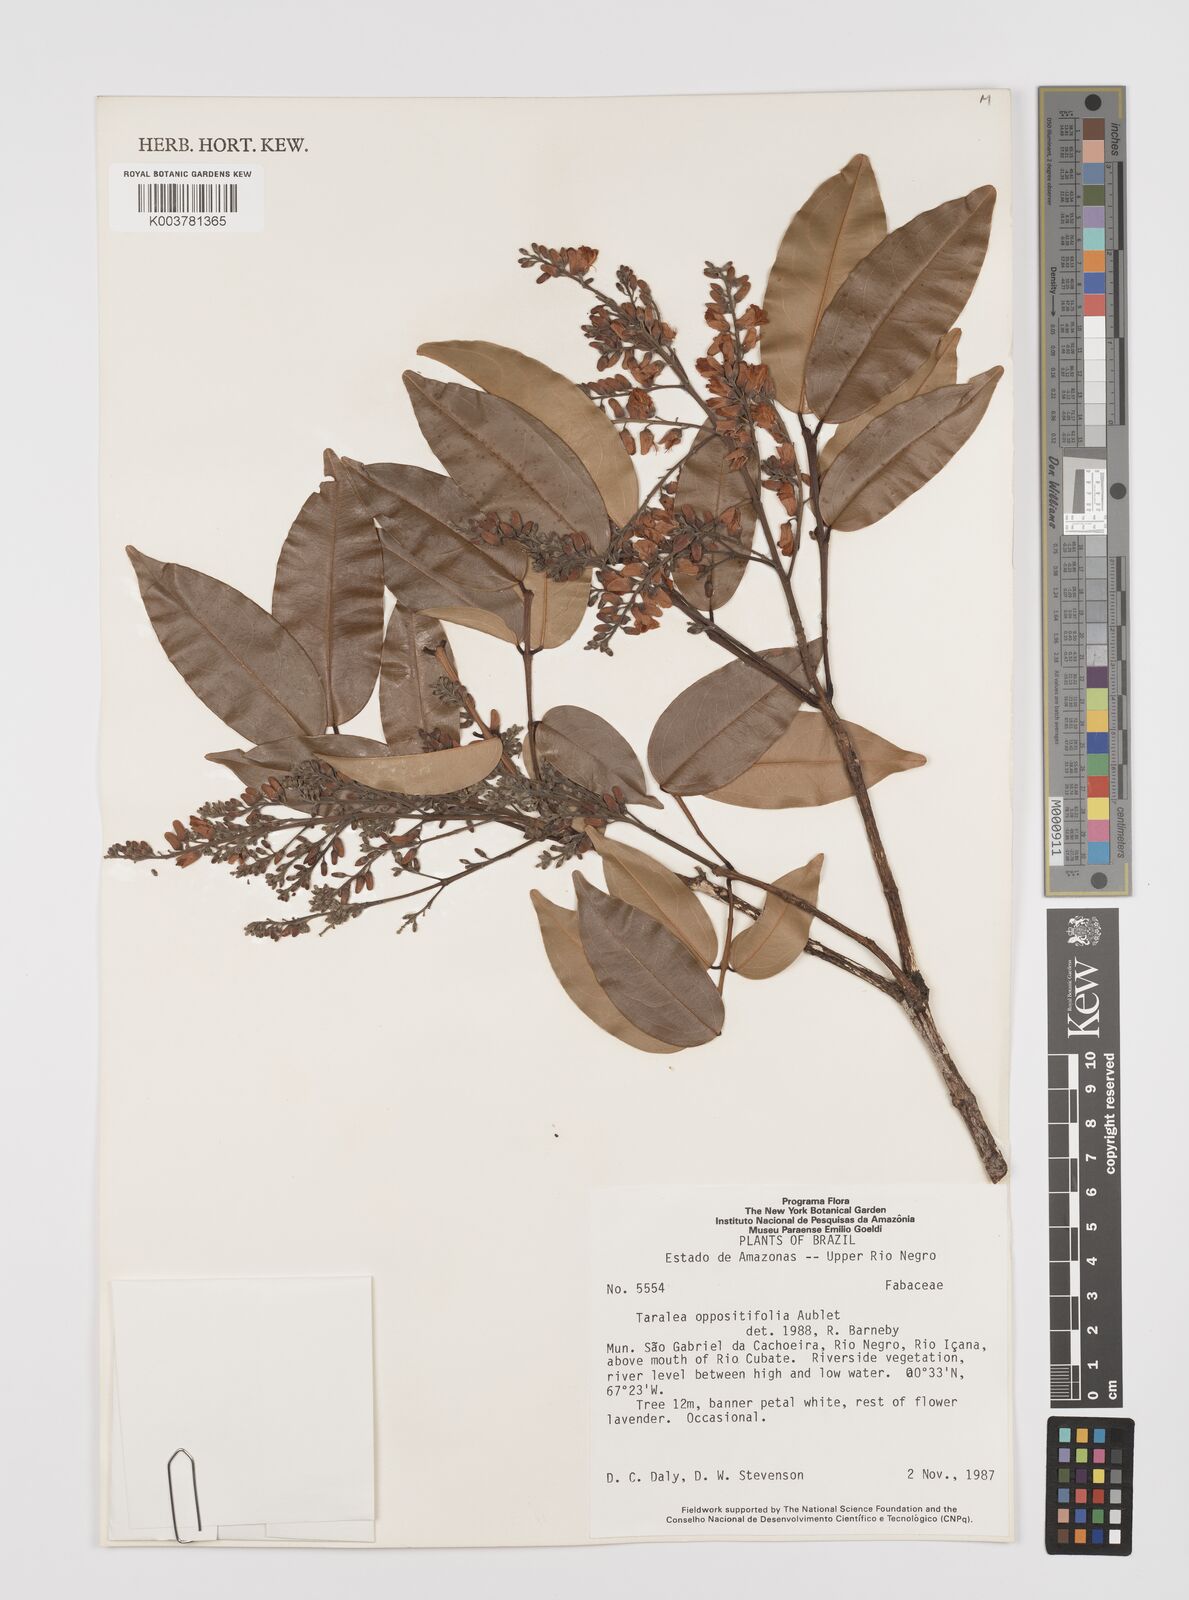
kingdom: Plantae
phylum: Tracheophyta
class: Magnoliopsida
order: Fabales
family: Fabaceae
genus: Taralea
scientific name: Taralea oppositifolia
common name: Tonka
